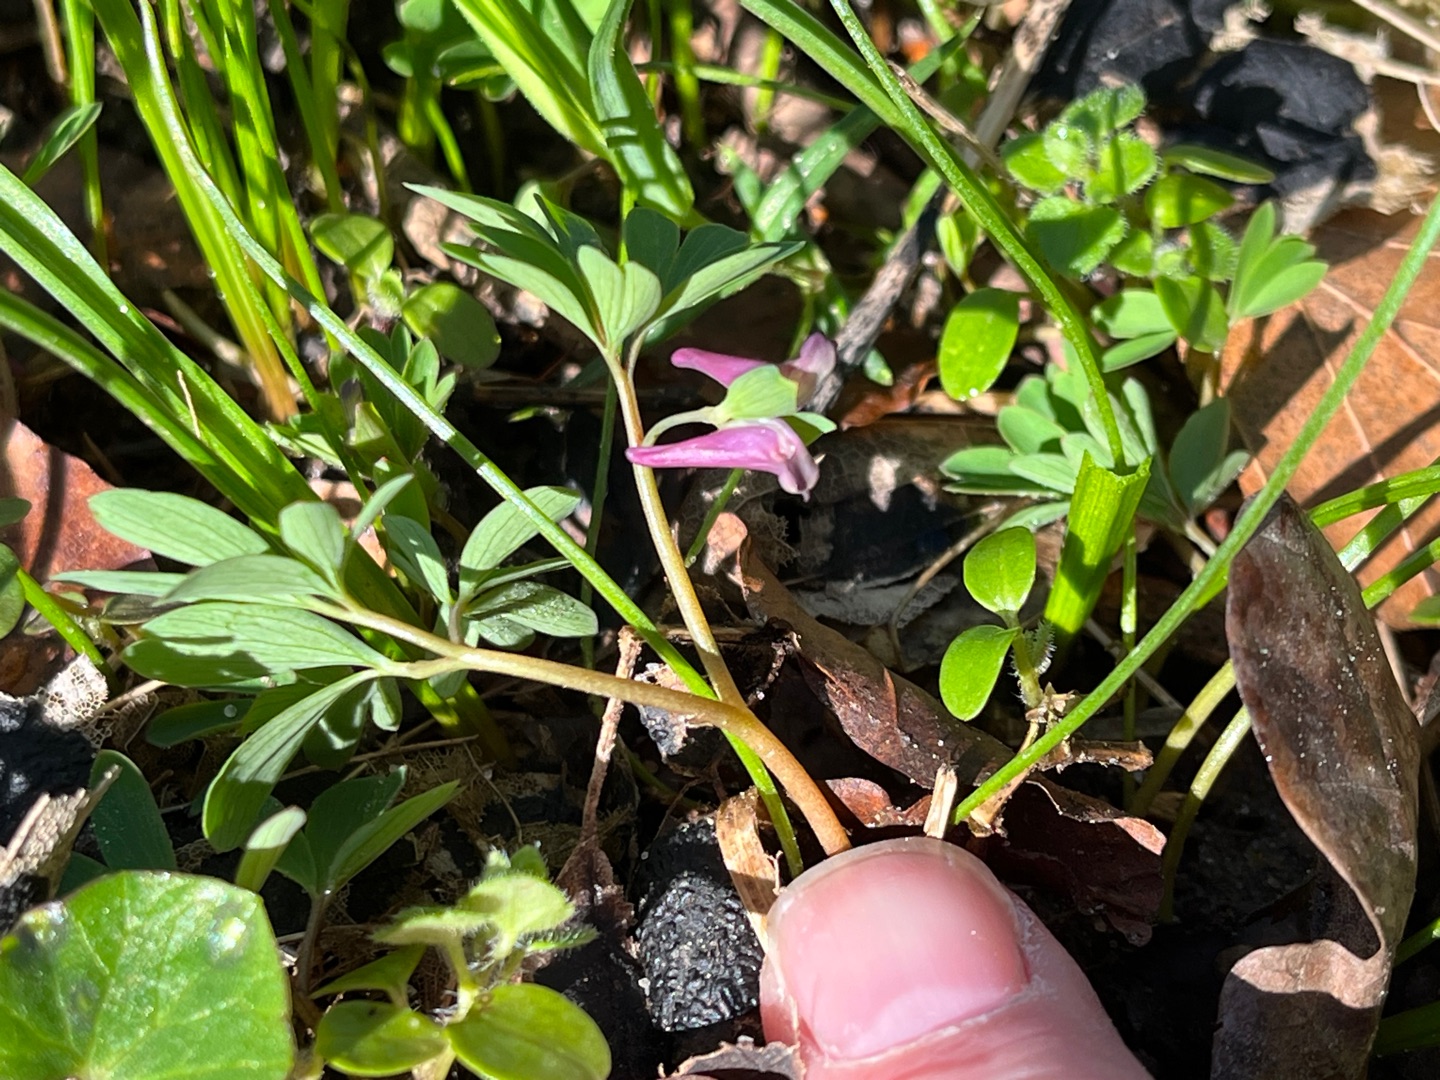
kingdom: Plantae
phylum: Tracheophyta
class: Magnoliopsida
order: Ranunculales
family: Papaveraceae
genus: Corydalis
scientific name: Corydalis intermedia
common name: Liden lærkespore
